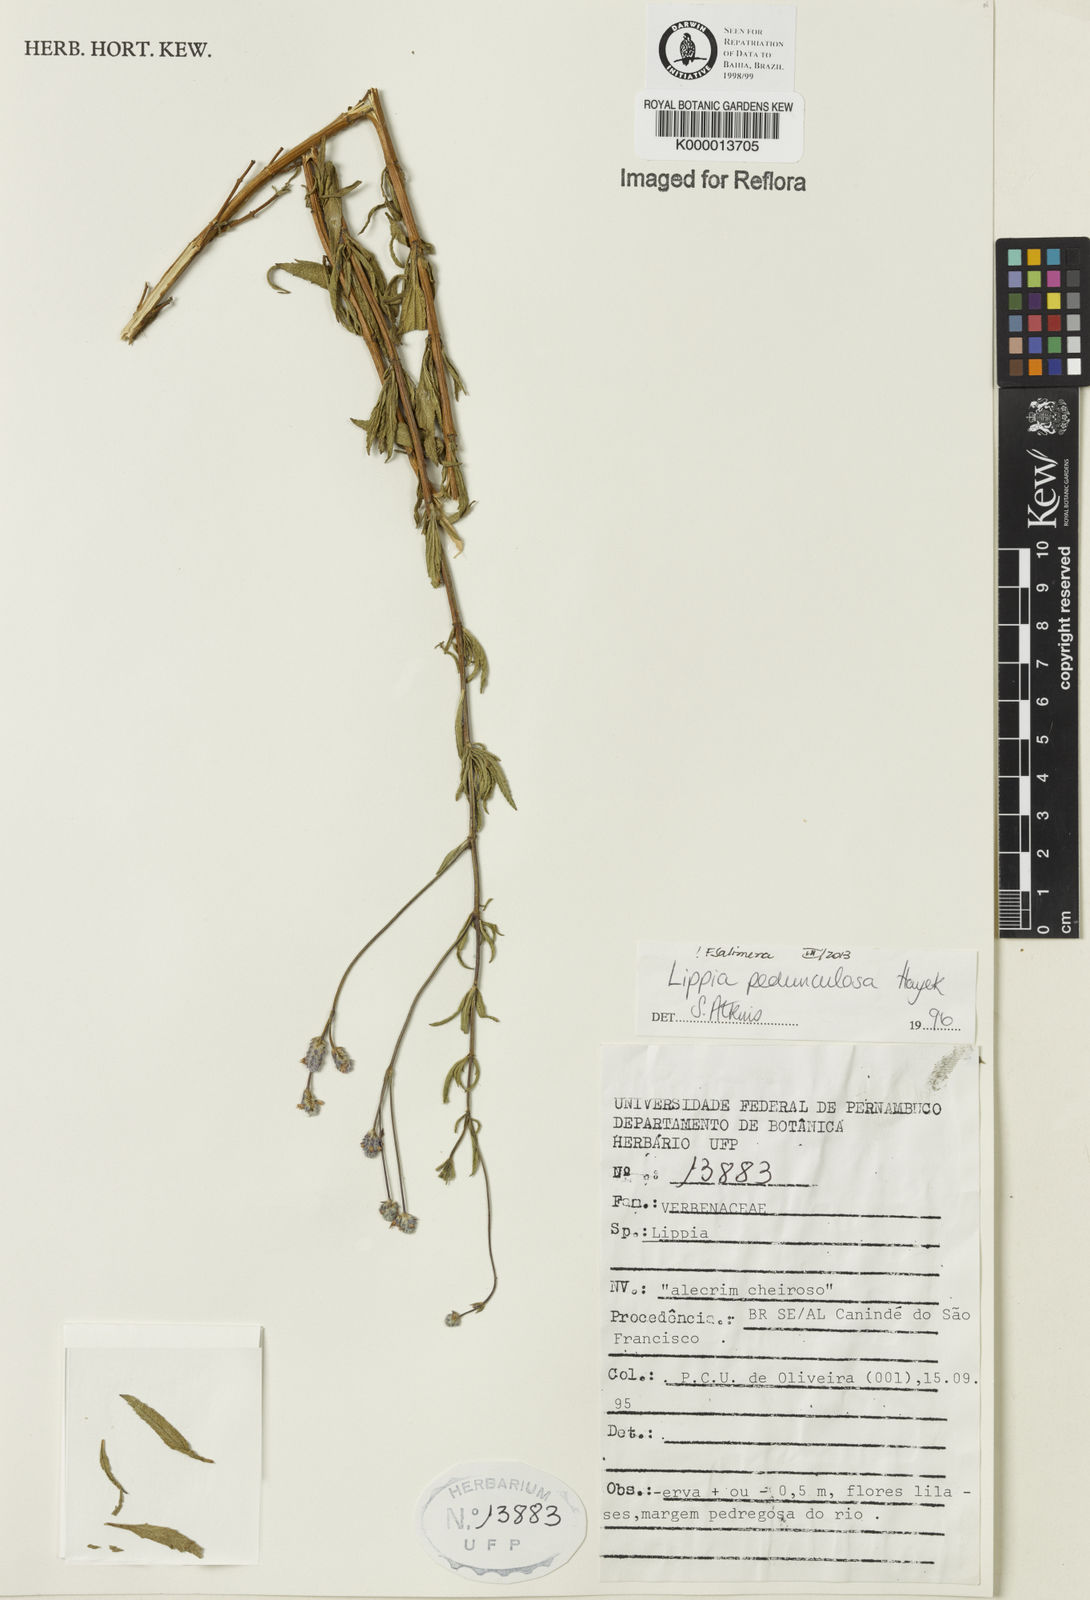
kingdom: Plantae
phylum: Tracheophyta
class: Magnoliopsida
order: Lamiales
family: Verbenaceae
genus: Lippia
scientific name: Lippia pedunculosa
